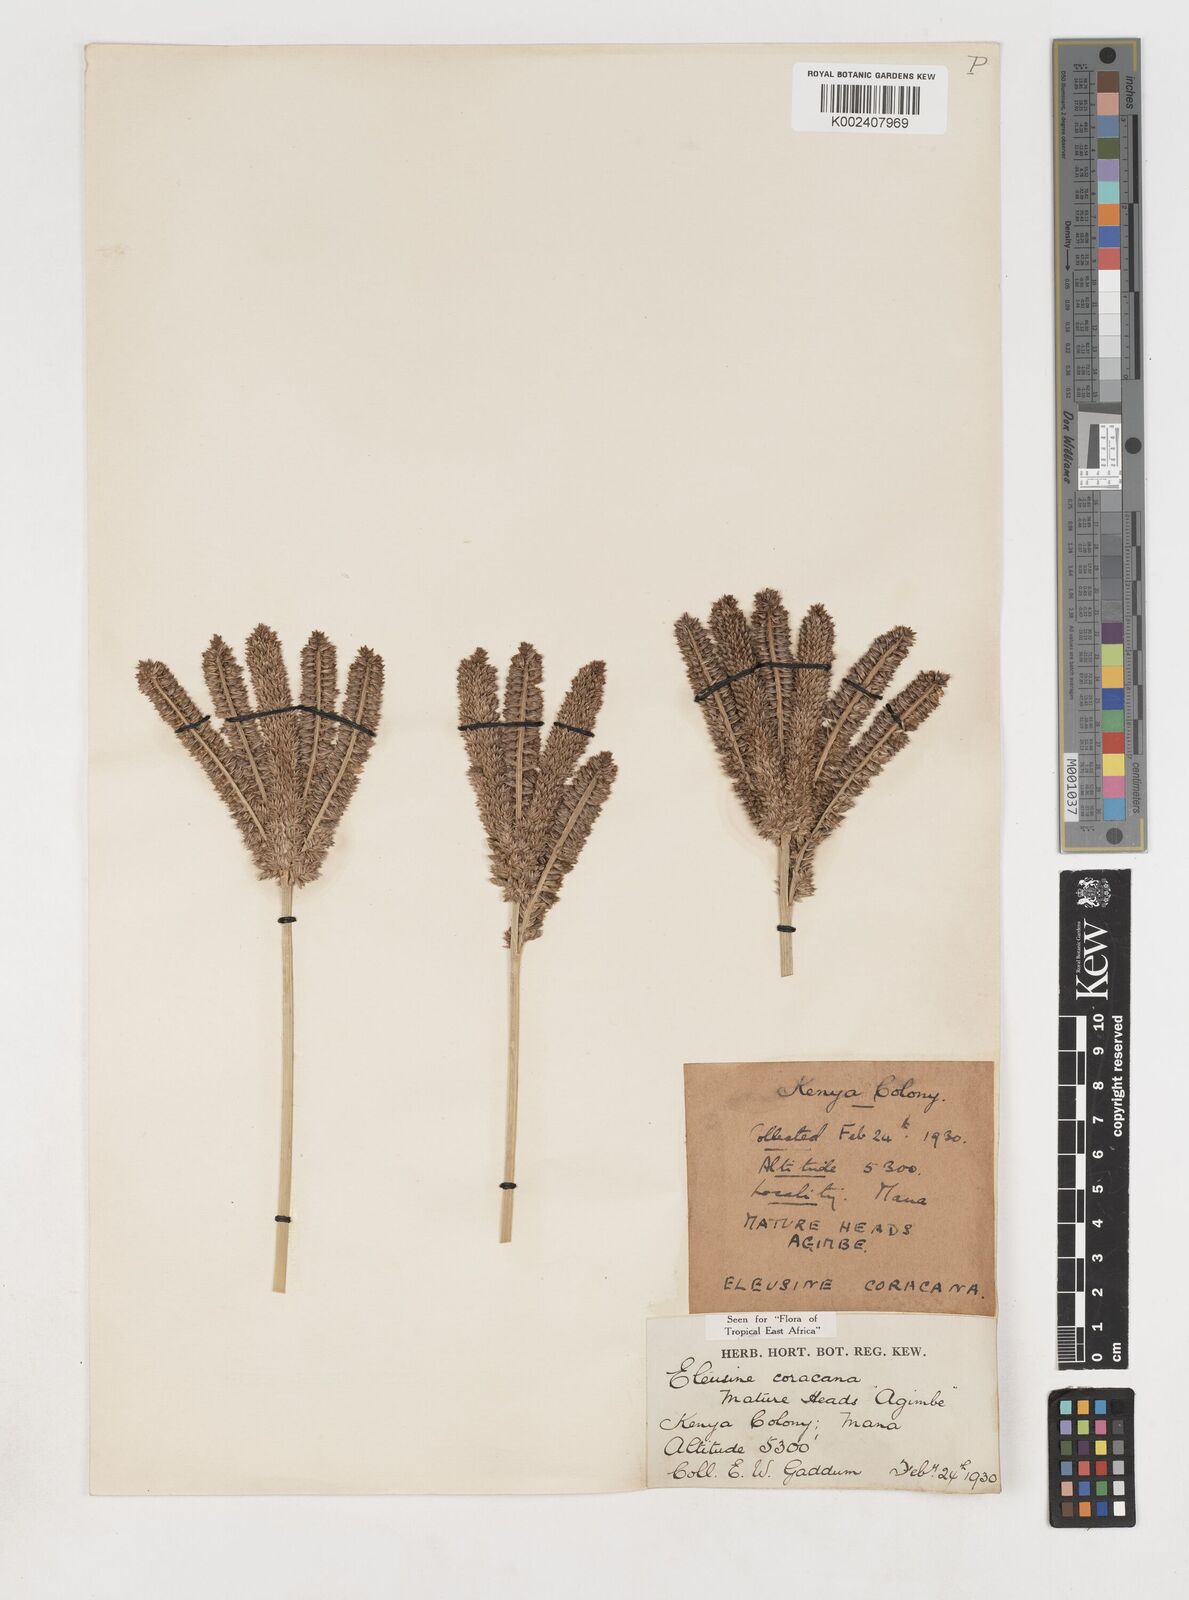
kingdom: Plantae
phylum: Tracheophyta
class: Liliopsida
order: Poales
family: Poaceae
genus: Eleusine
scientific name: Eleusine coracana
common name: Finger millet
